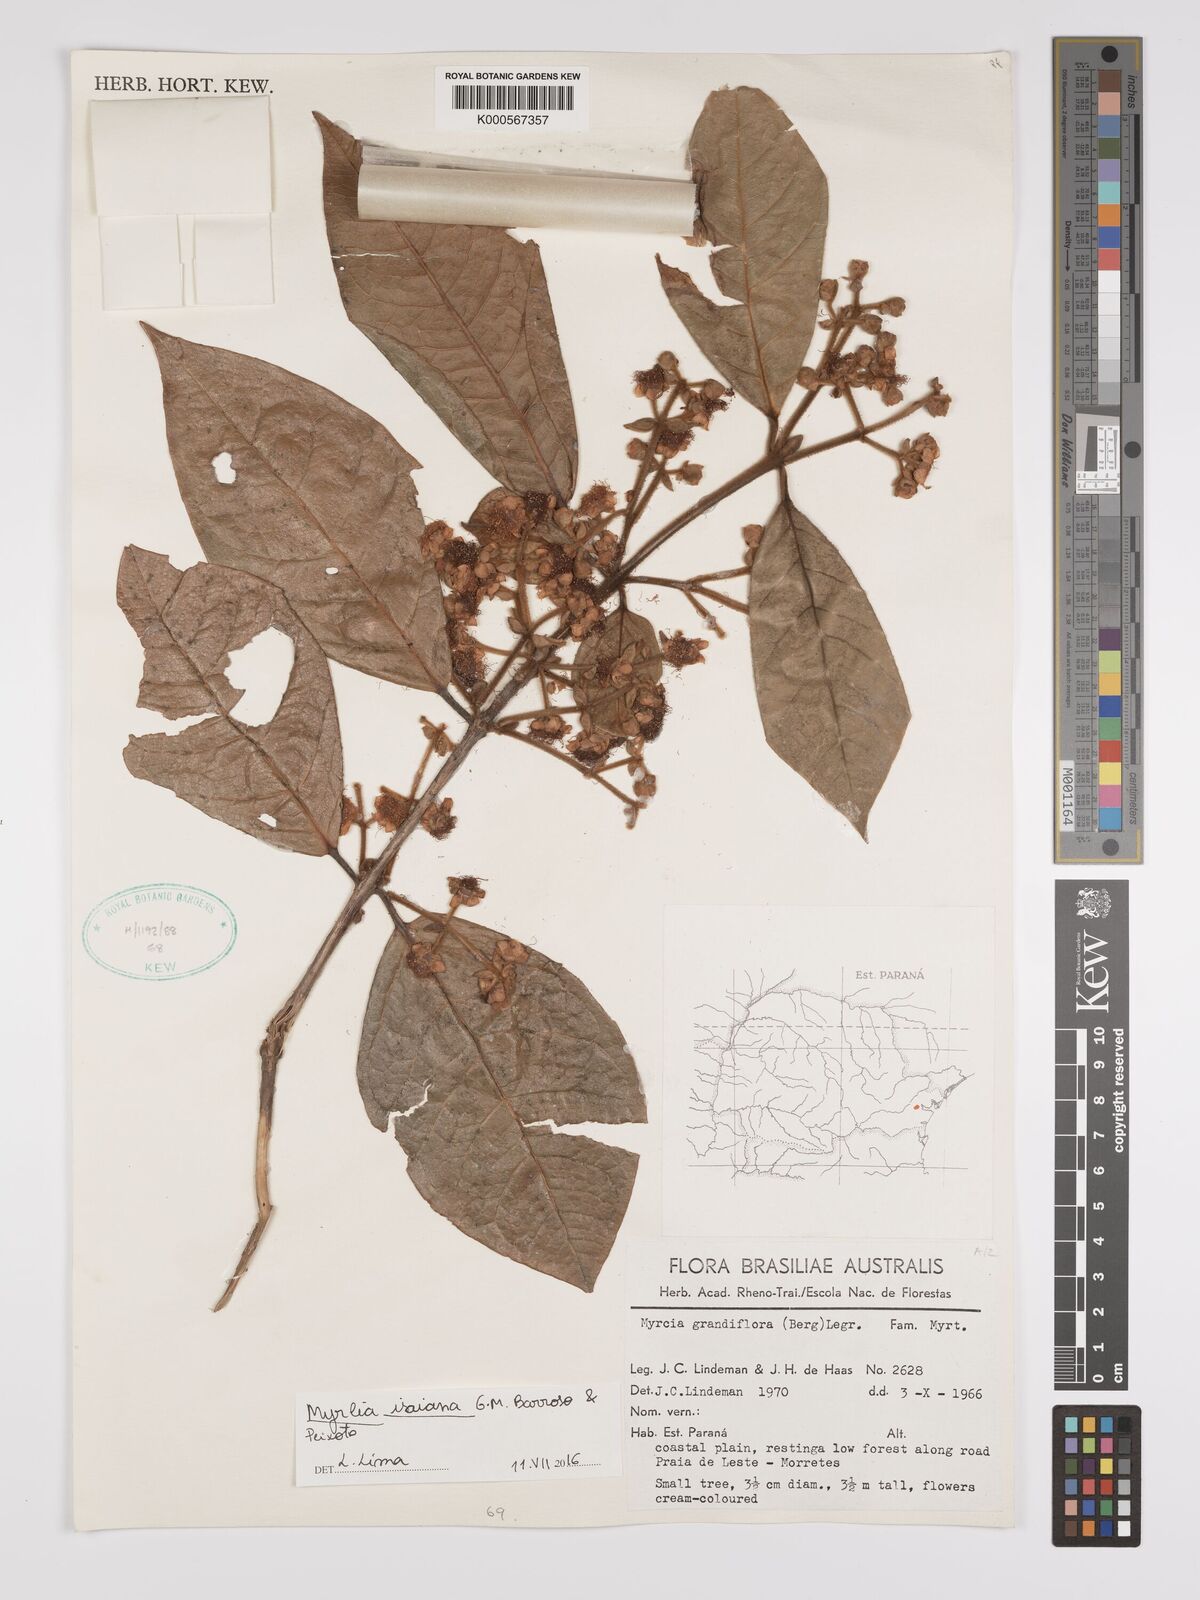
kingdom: Plantae
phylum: Tracheophyta
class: Magnoliopsida
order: Myrtales
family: Myrtaceae
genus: Myrcia
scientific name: Myrcia isaiana
